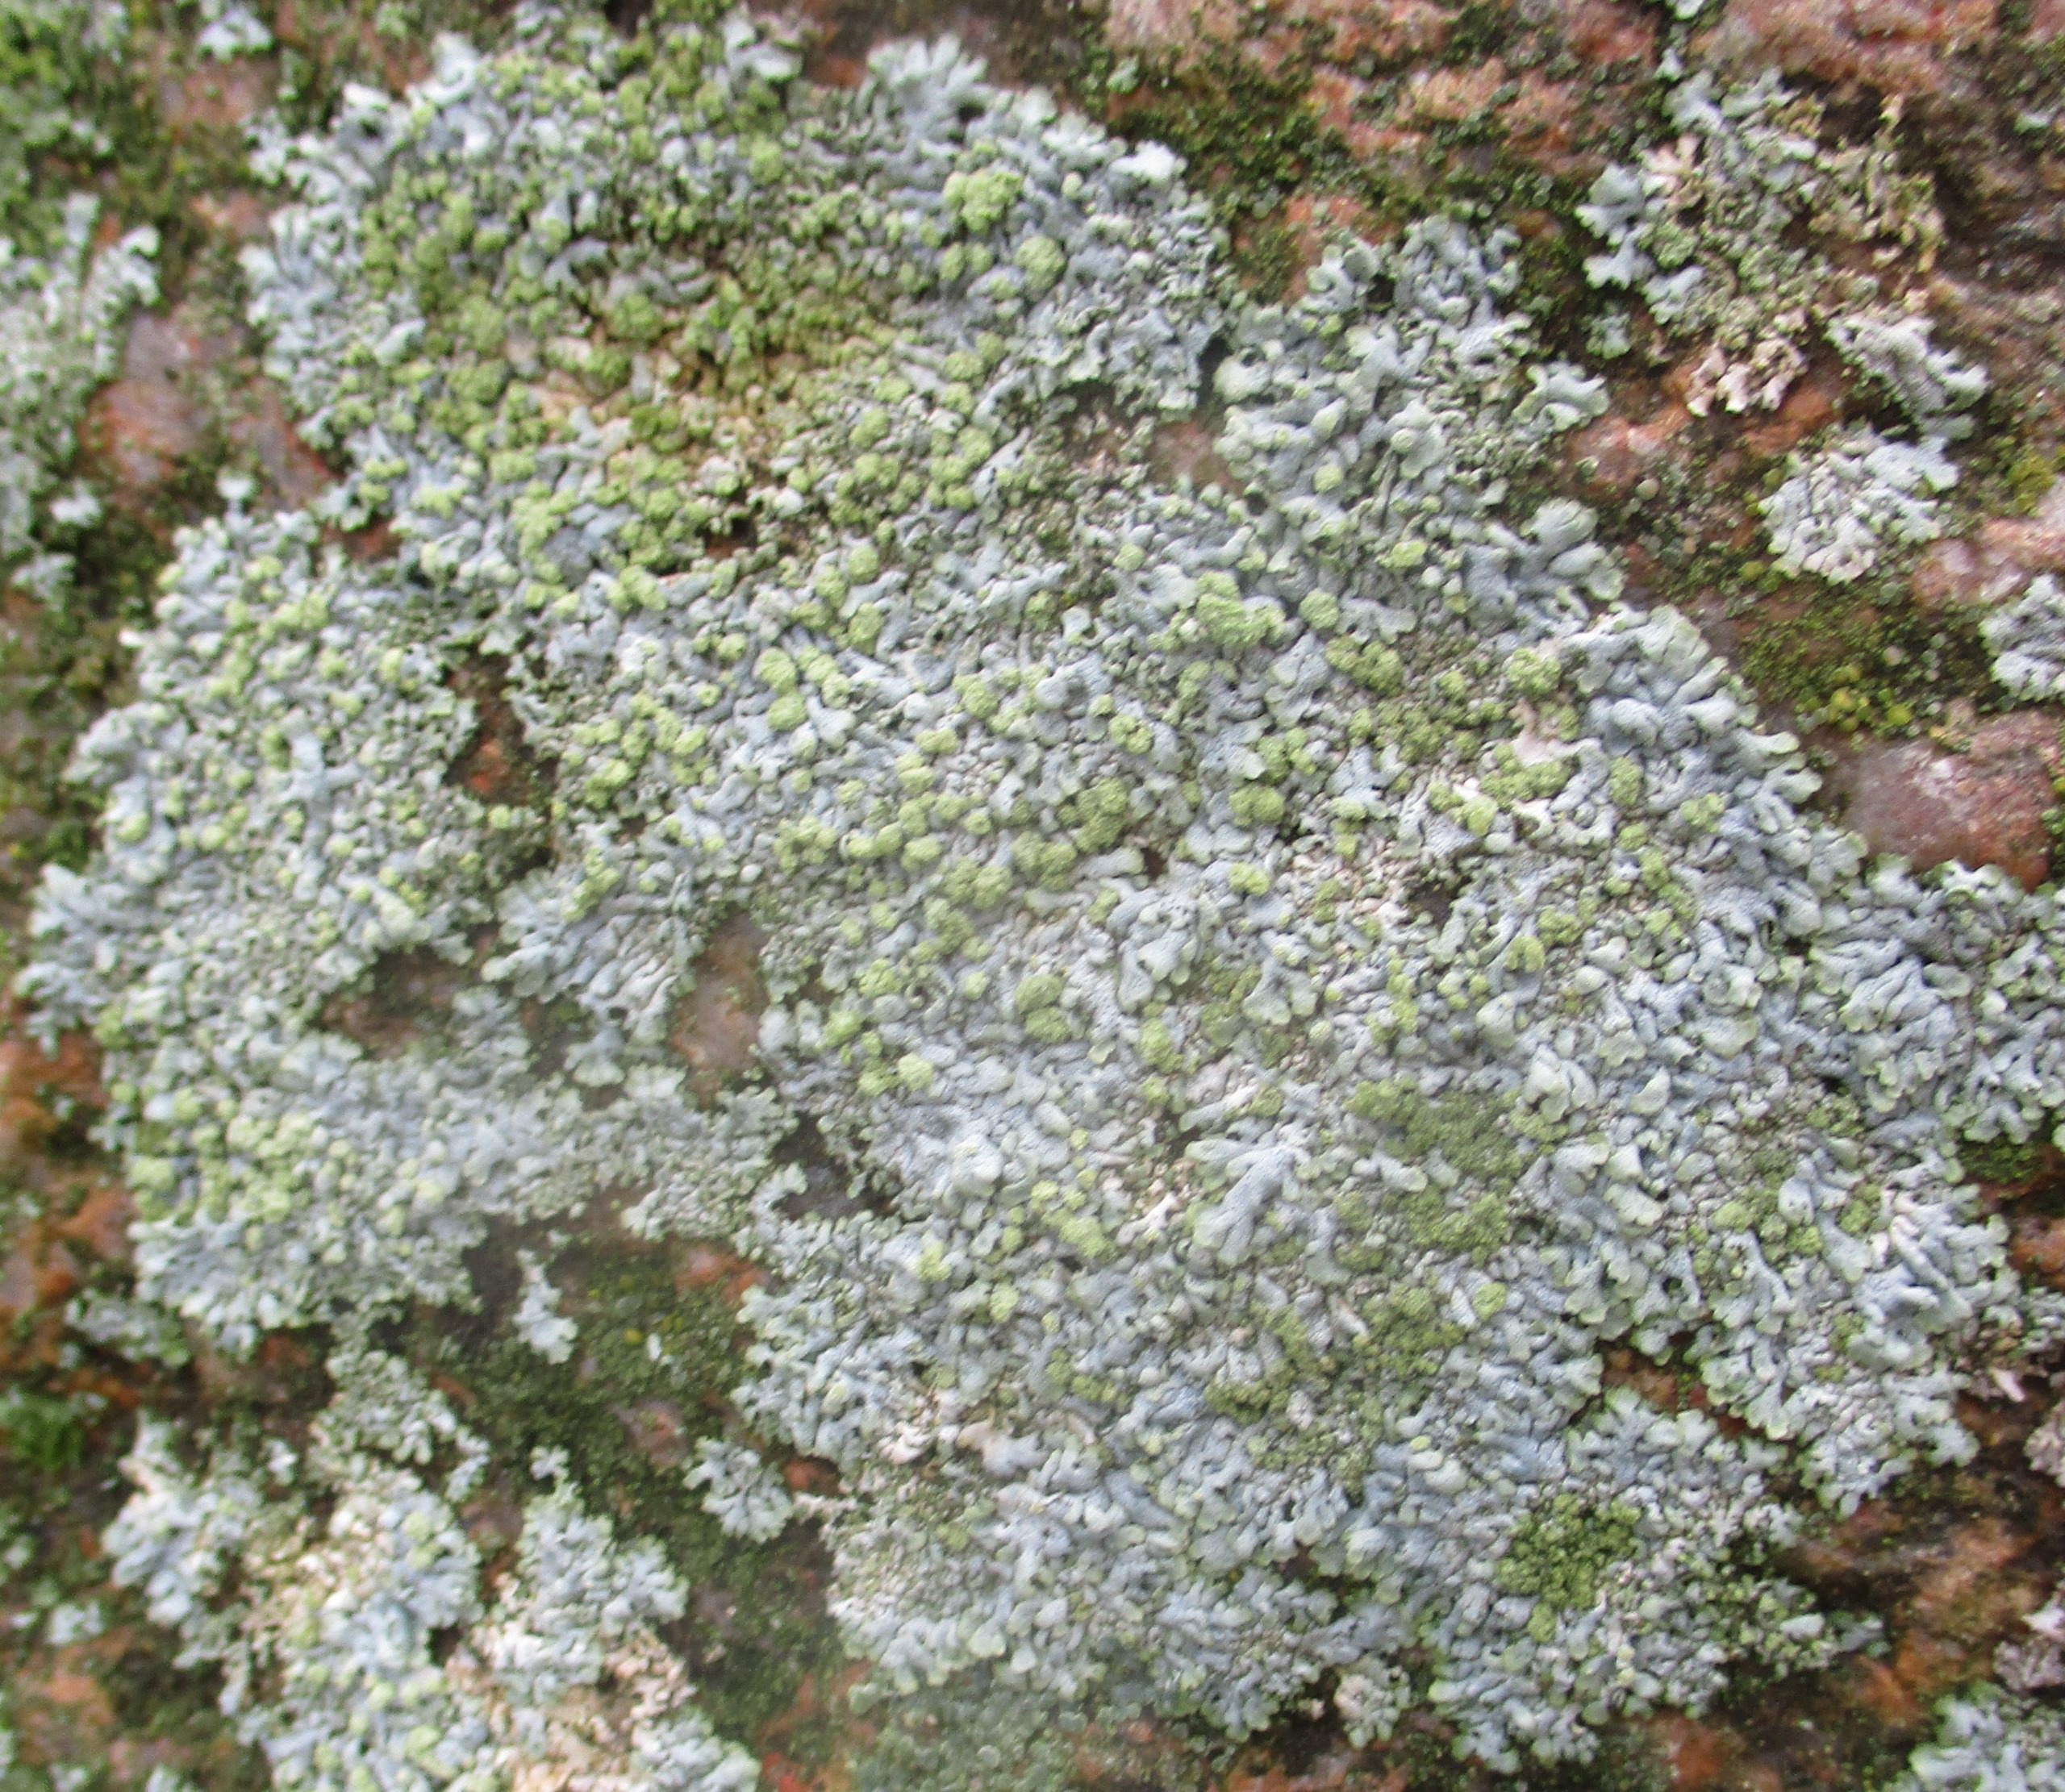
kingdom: Fungi
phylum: Ascomycota
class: Lecanoromycetes
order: Caliciales
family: Physciaceae
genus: Physcia
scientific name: Physcia caesia
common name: Blågrå rosetlav
